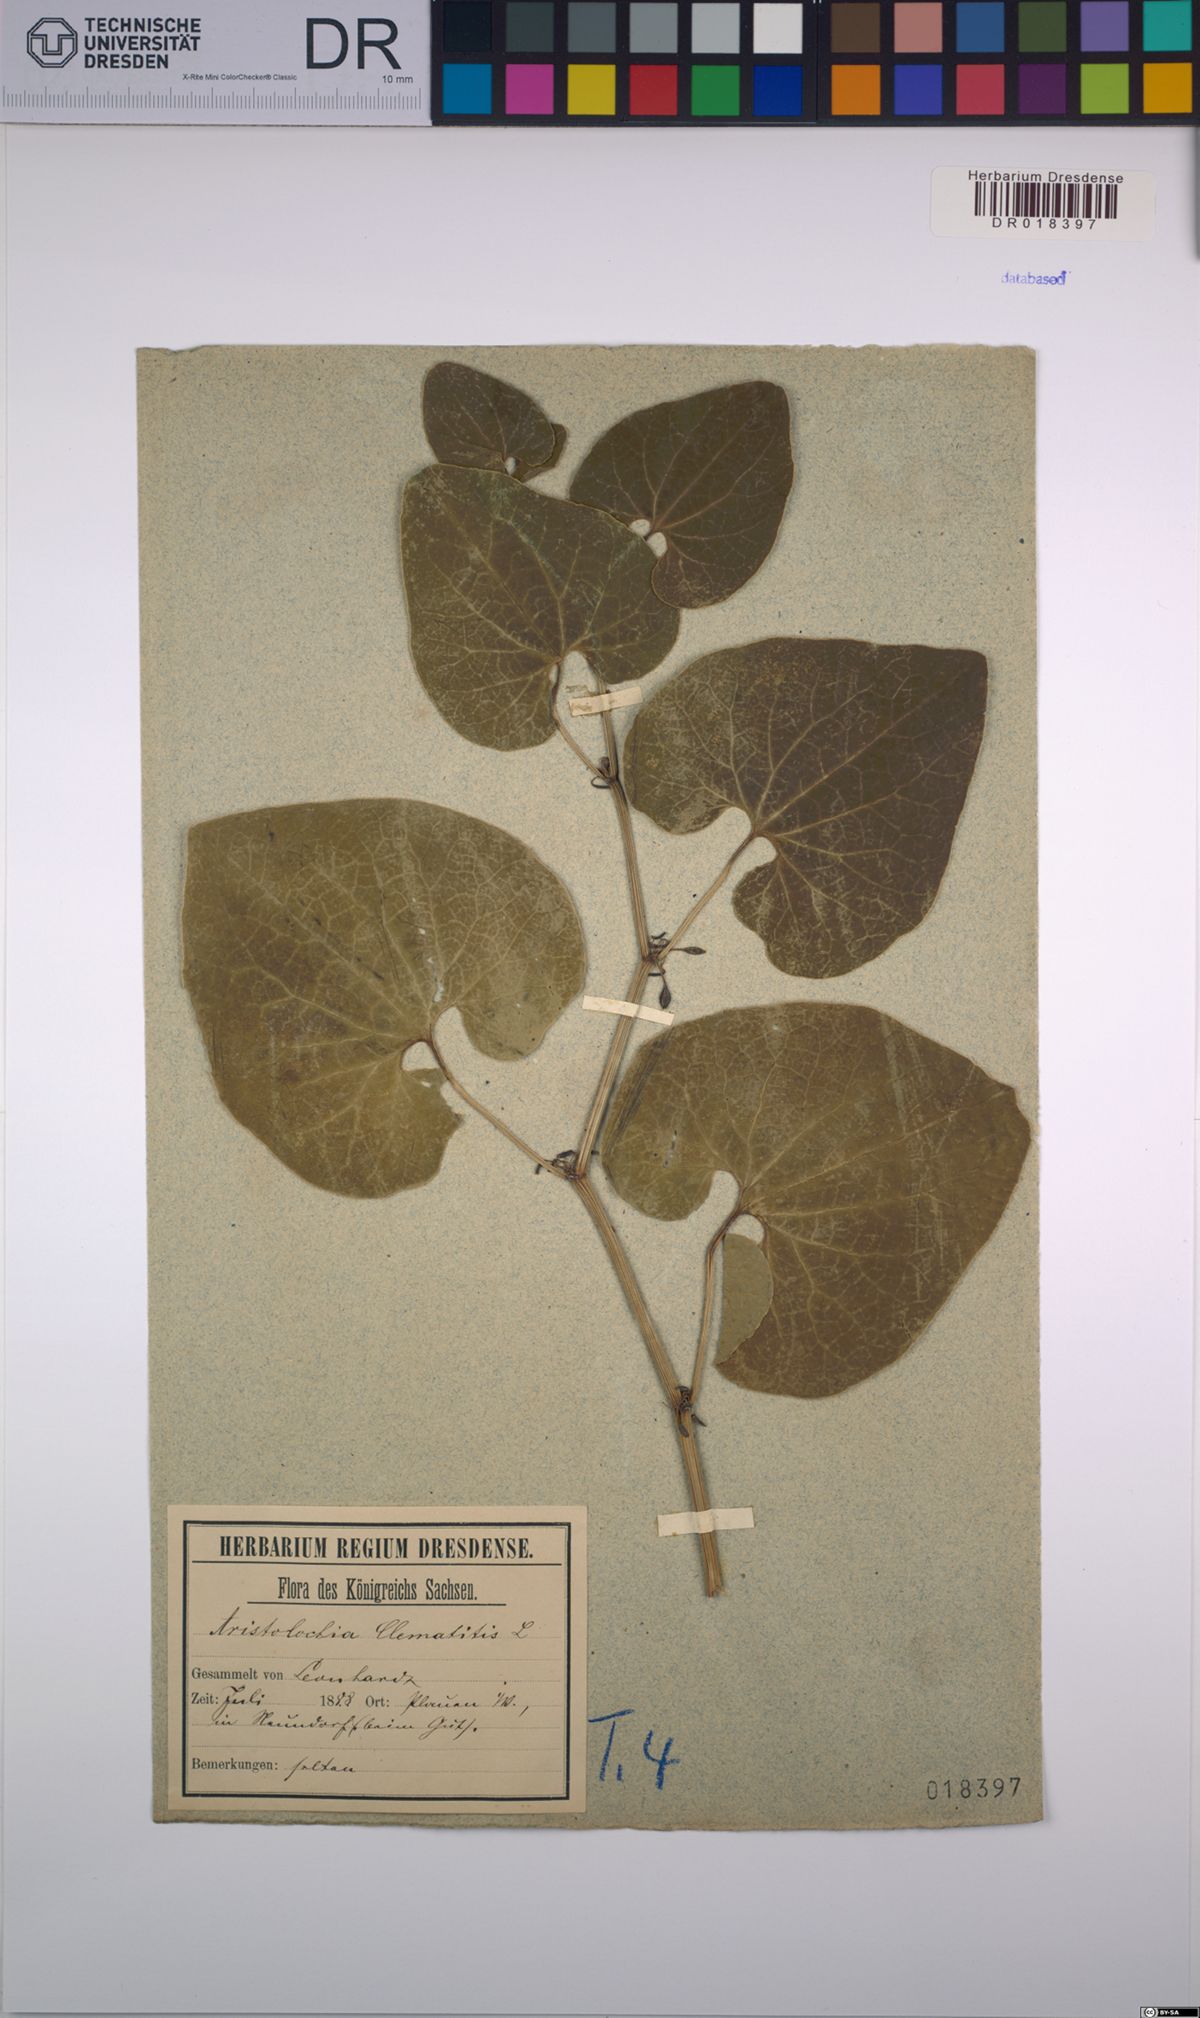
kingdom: Plantae
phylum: Tracheophyta
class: Magnoliopsida
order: Piperales
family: Aristolochiaceae
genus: Aristolochia
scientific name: Aristolochia clematitis
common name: Birthwort
